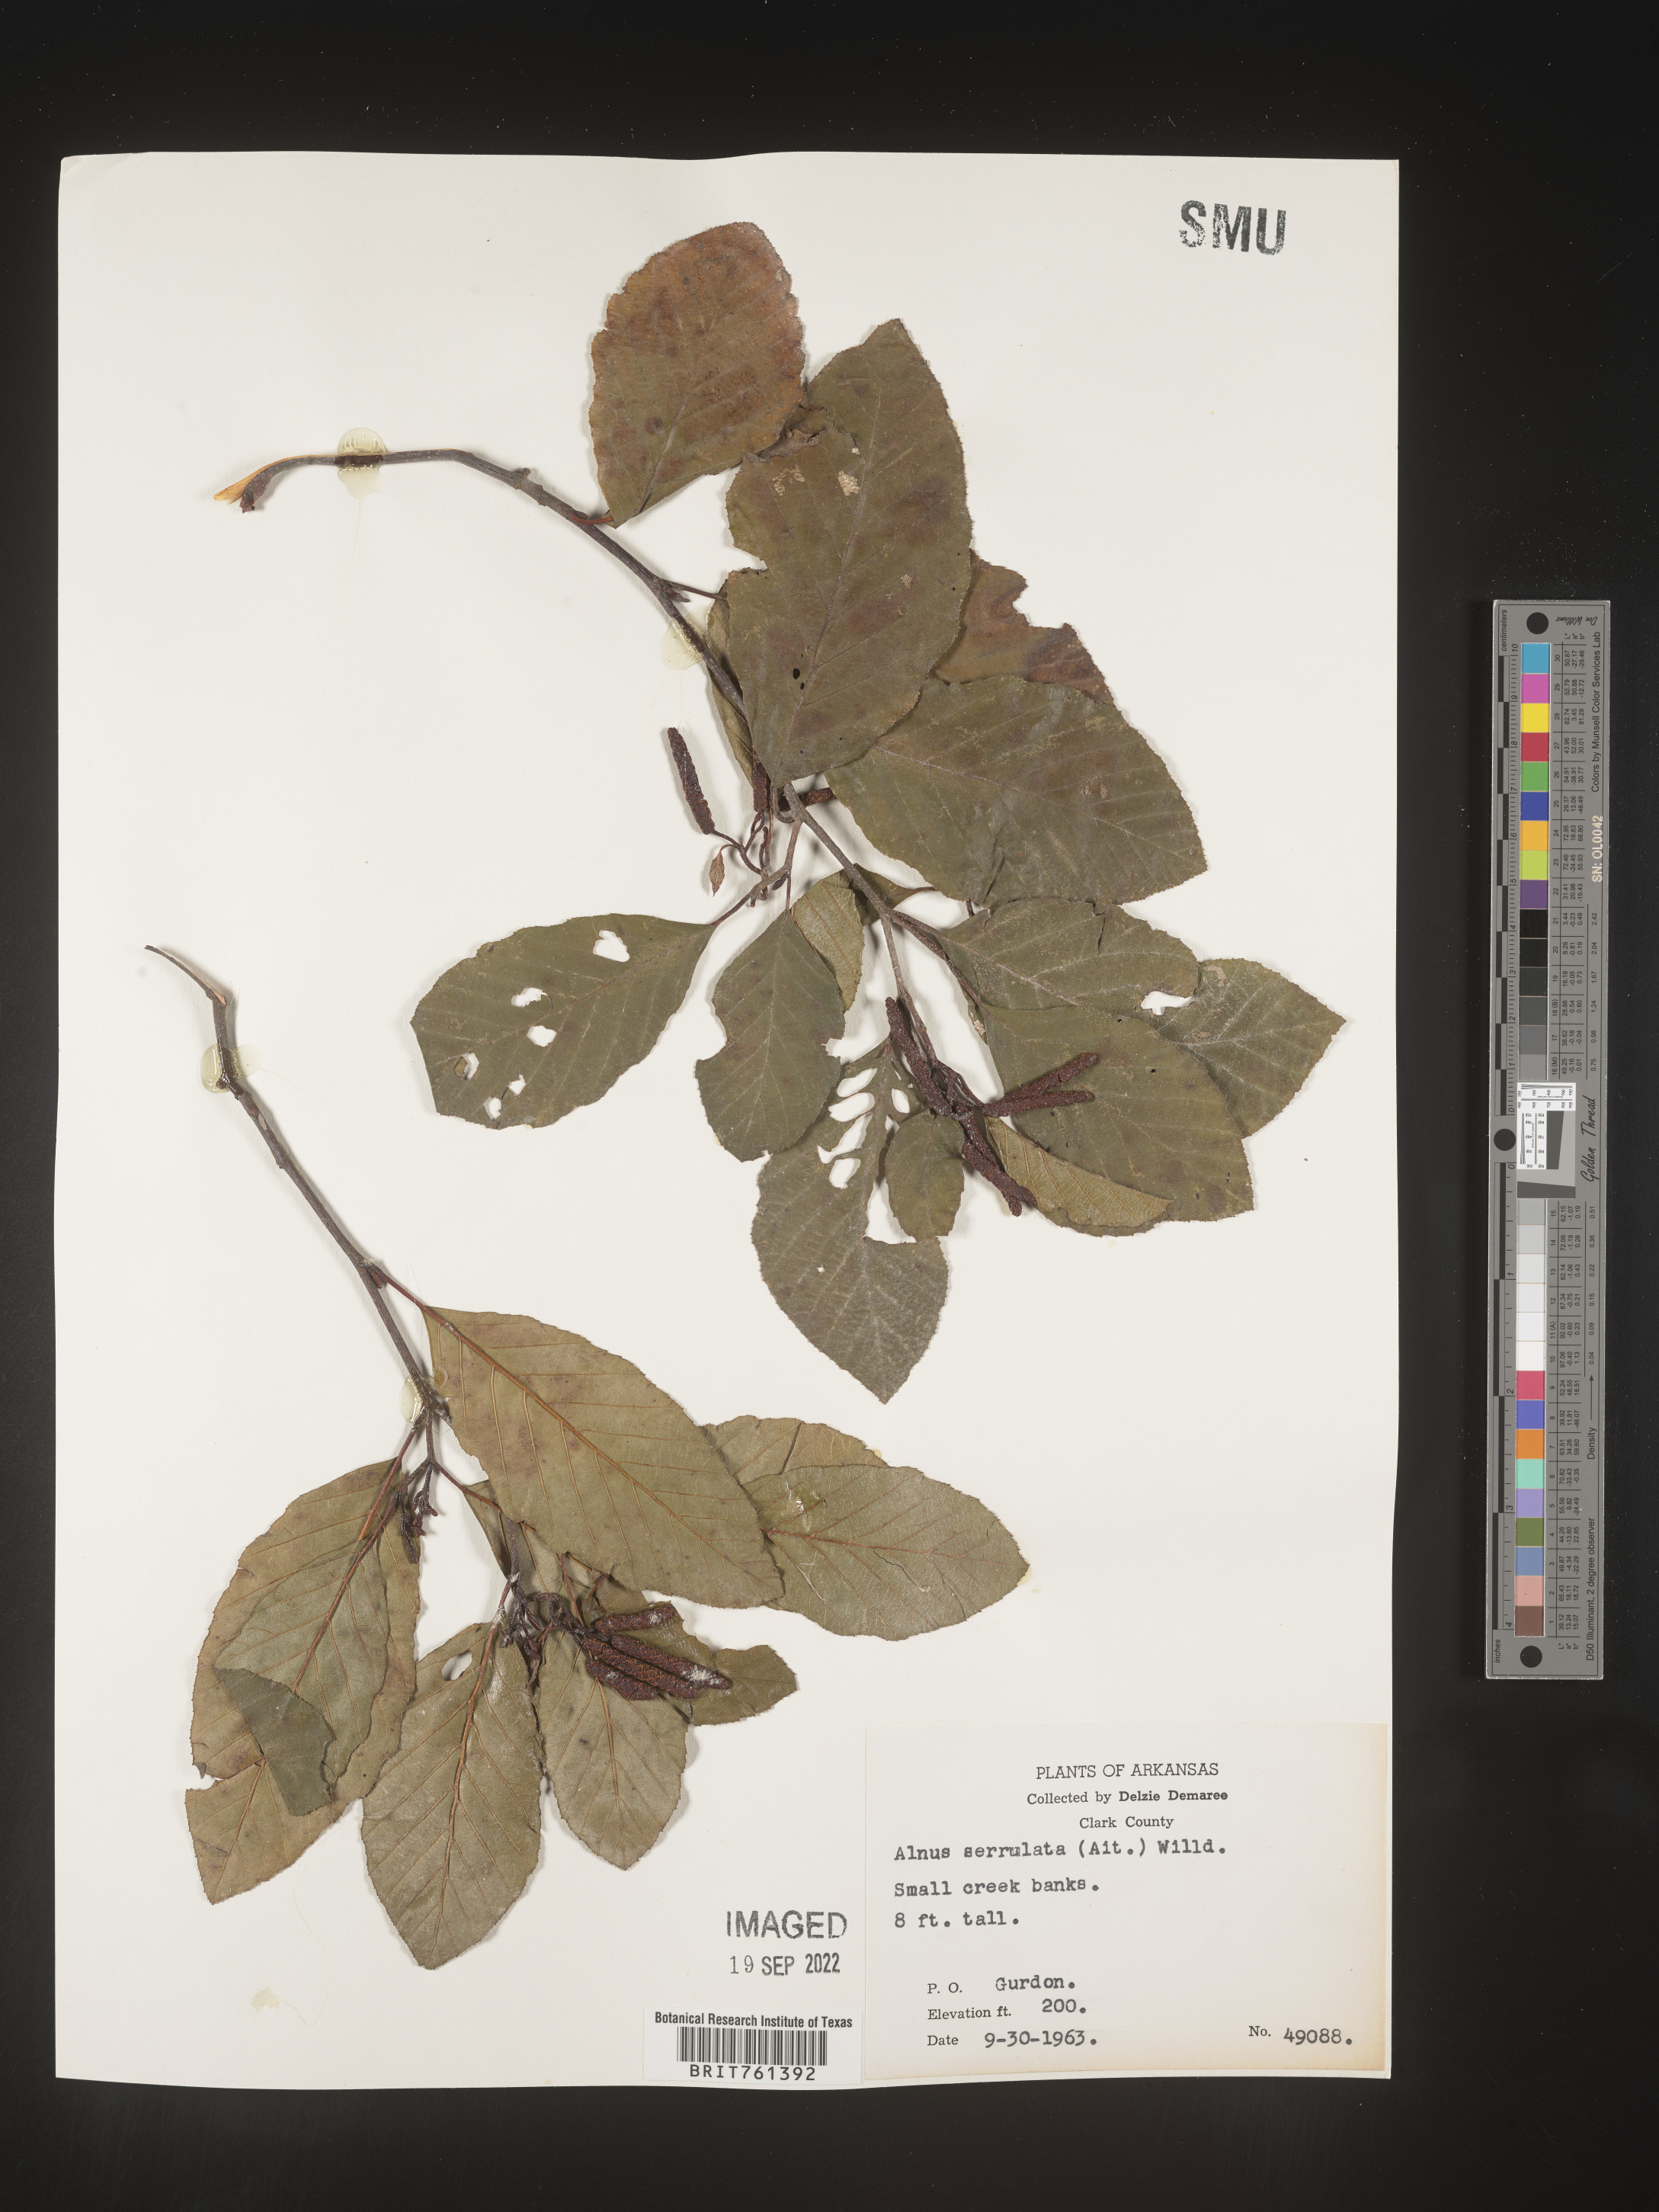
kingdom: Plantae
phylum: Tracheophyta
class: Magnoliopsida
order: Fagales
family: Betulaceae
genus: Alnus
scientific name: Alnus serrulata
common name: Hazel alder
